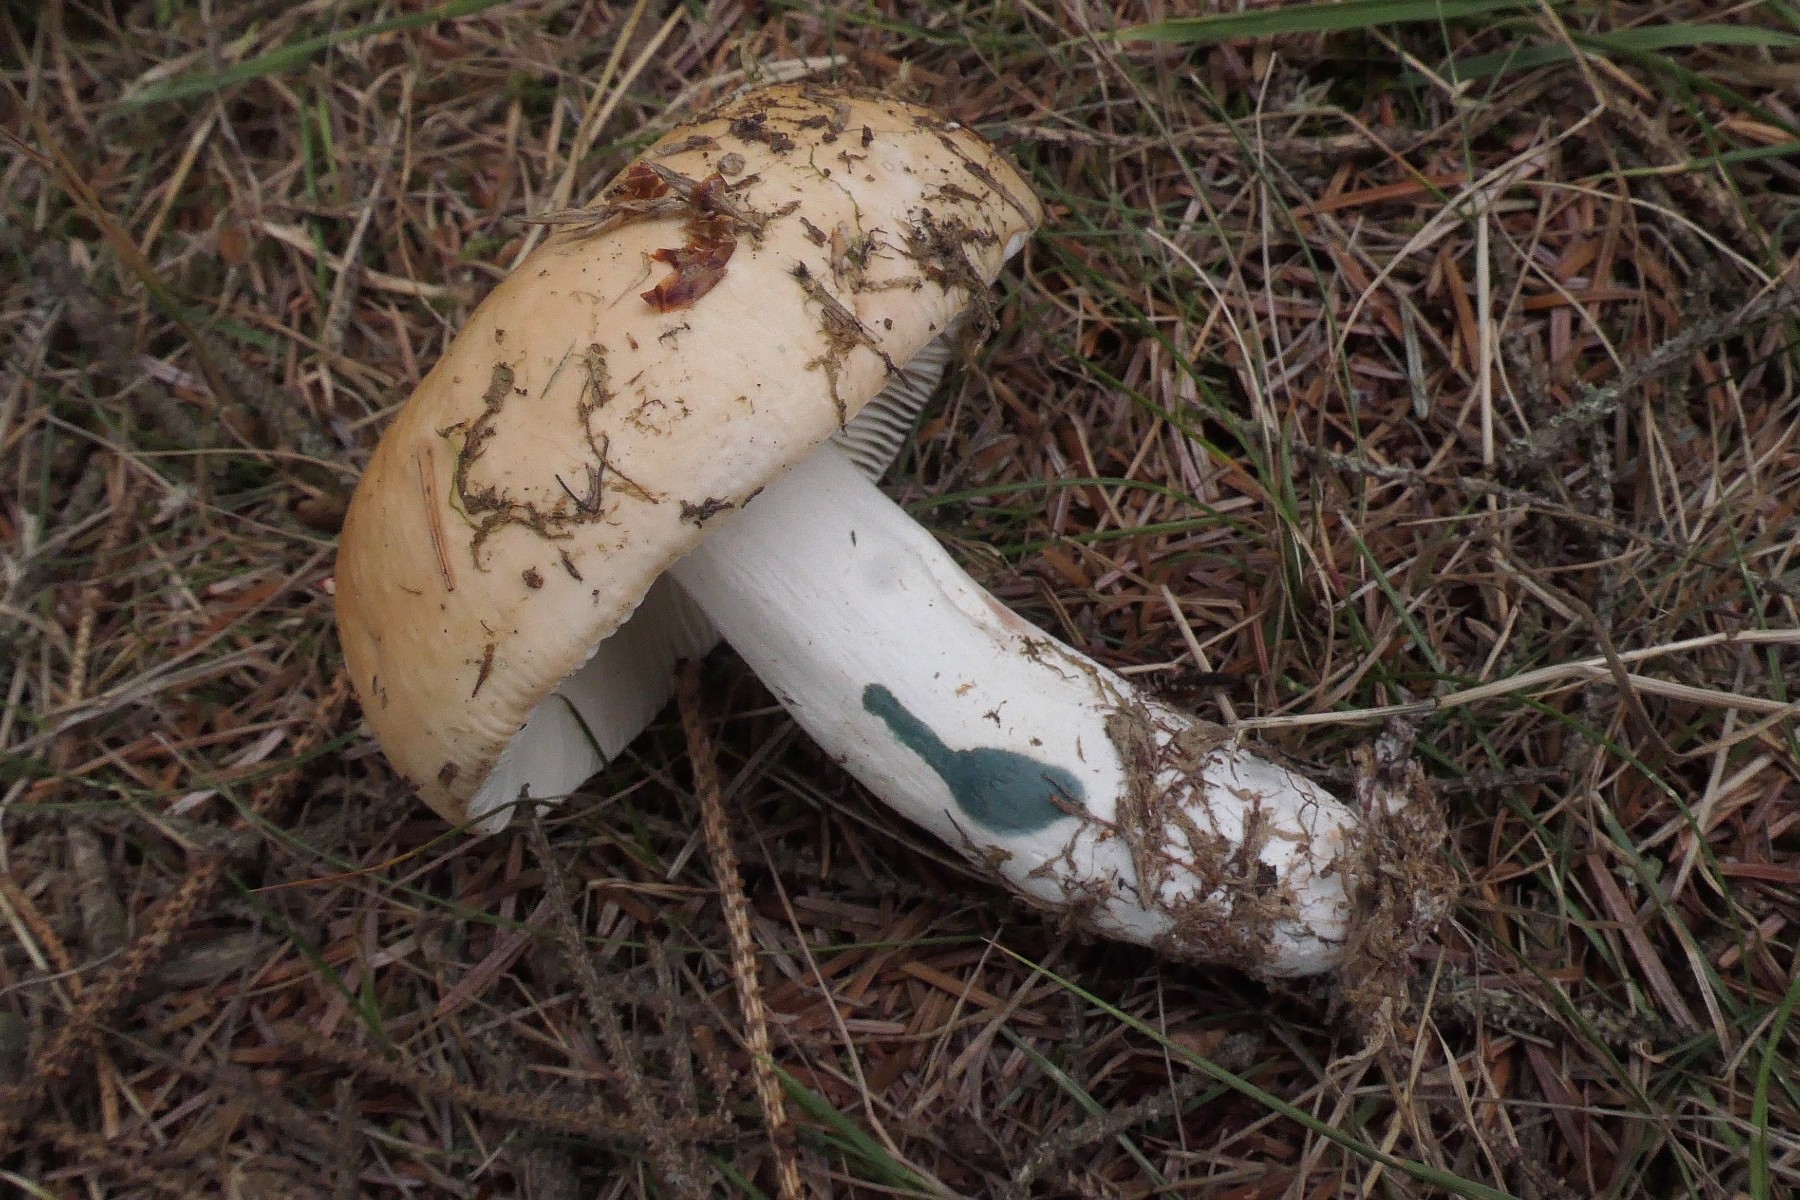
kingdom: Fungi
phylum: Basidiomycota
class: Agaricomycetes
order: Russulales
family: Russulaceae
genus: Russula
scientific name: Russula paludosa
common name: prægtig skørhat
